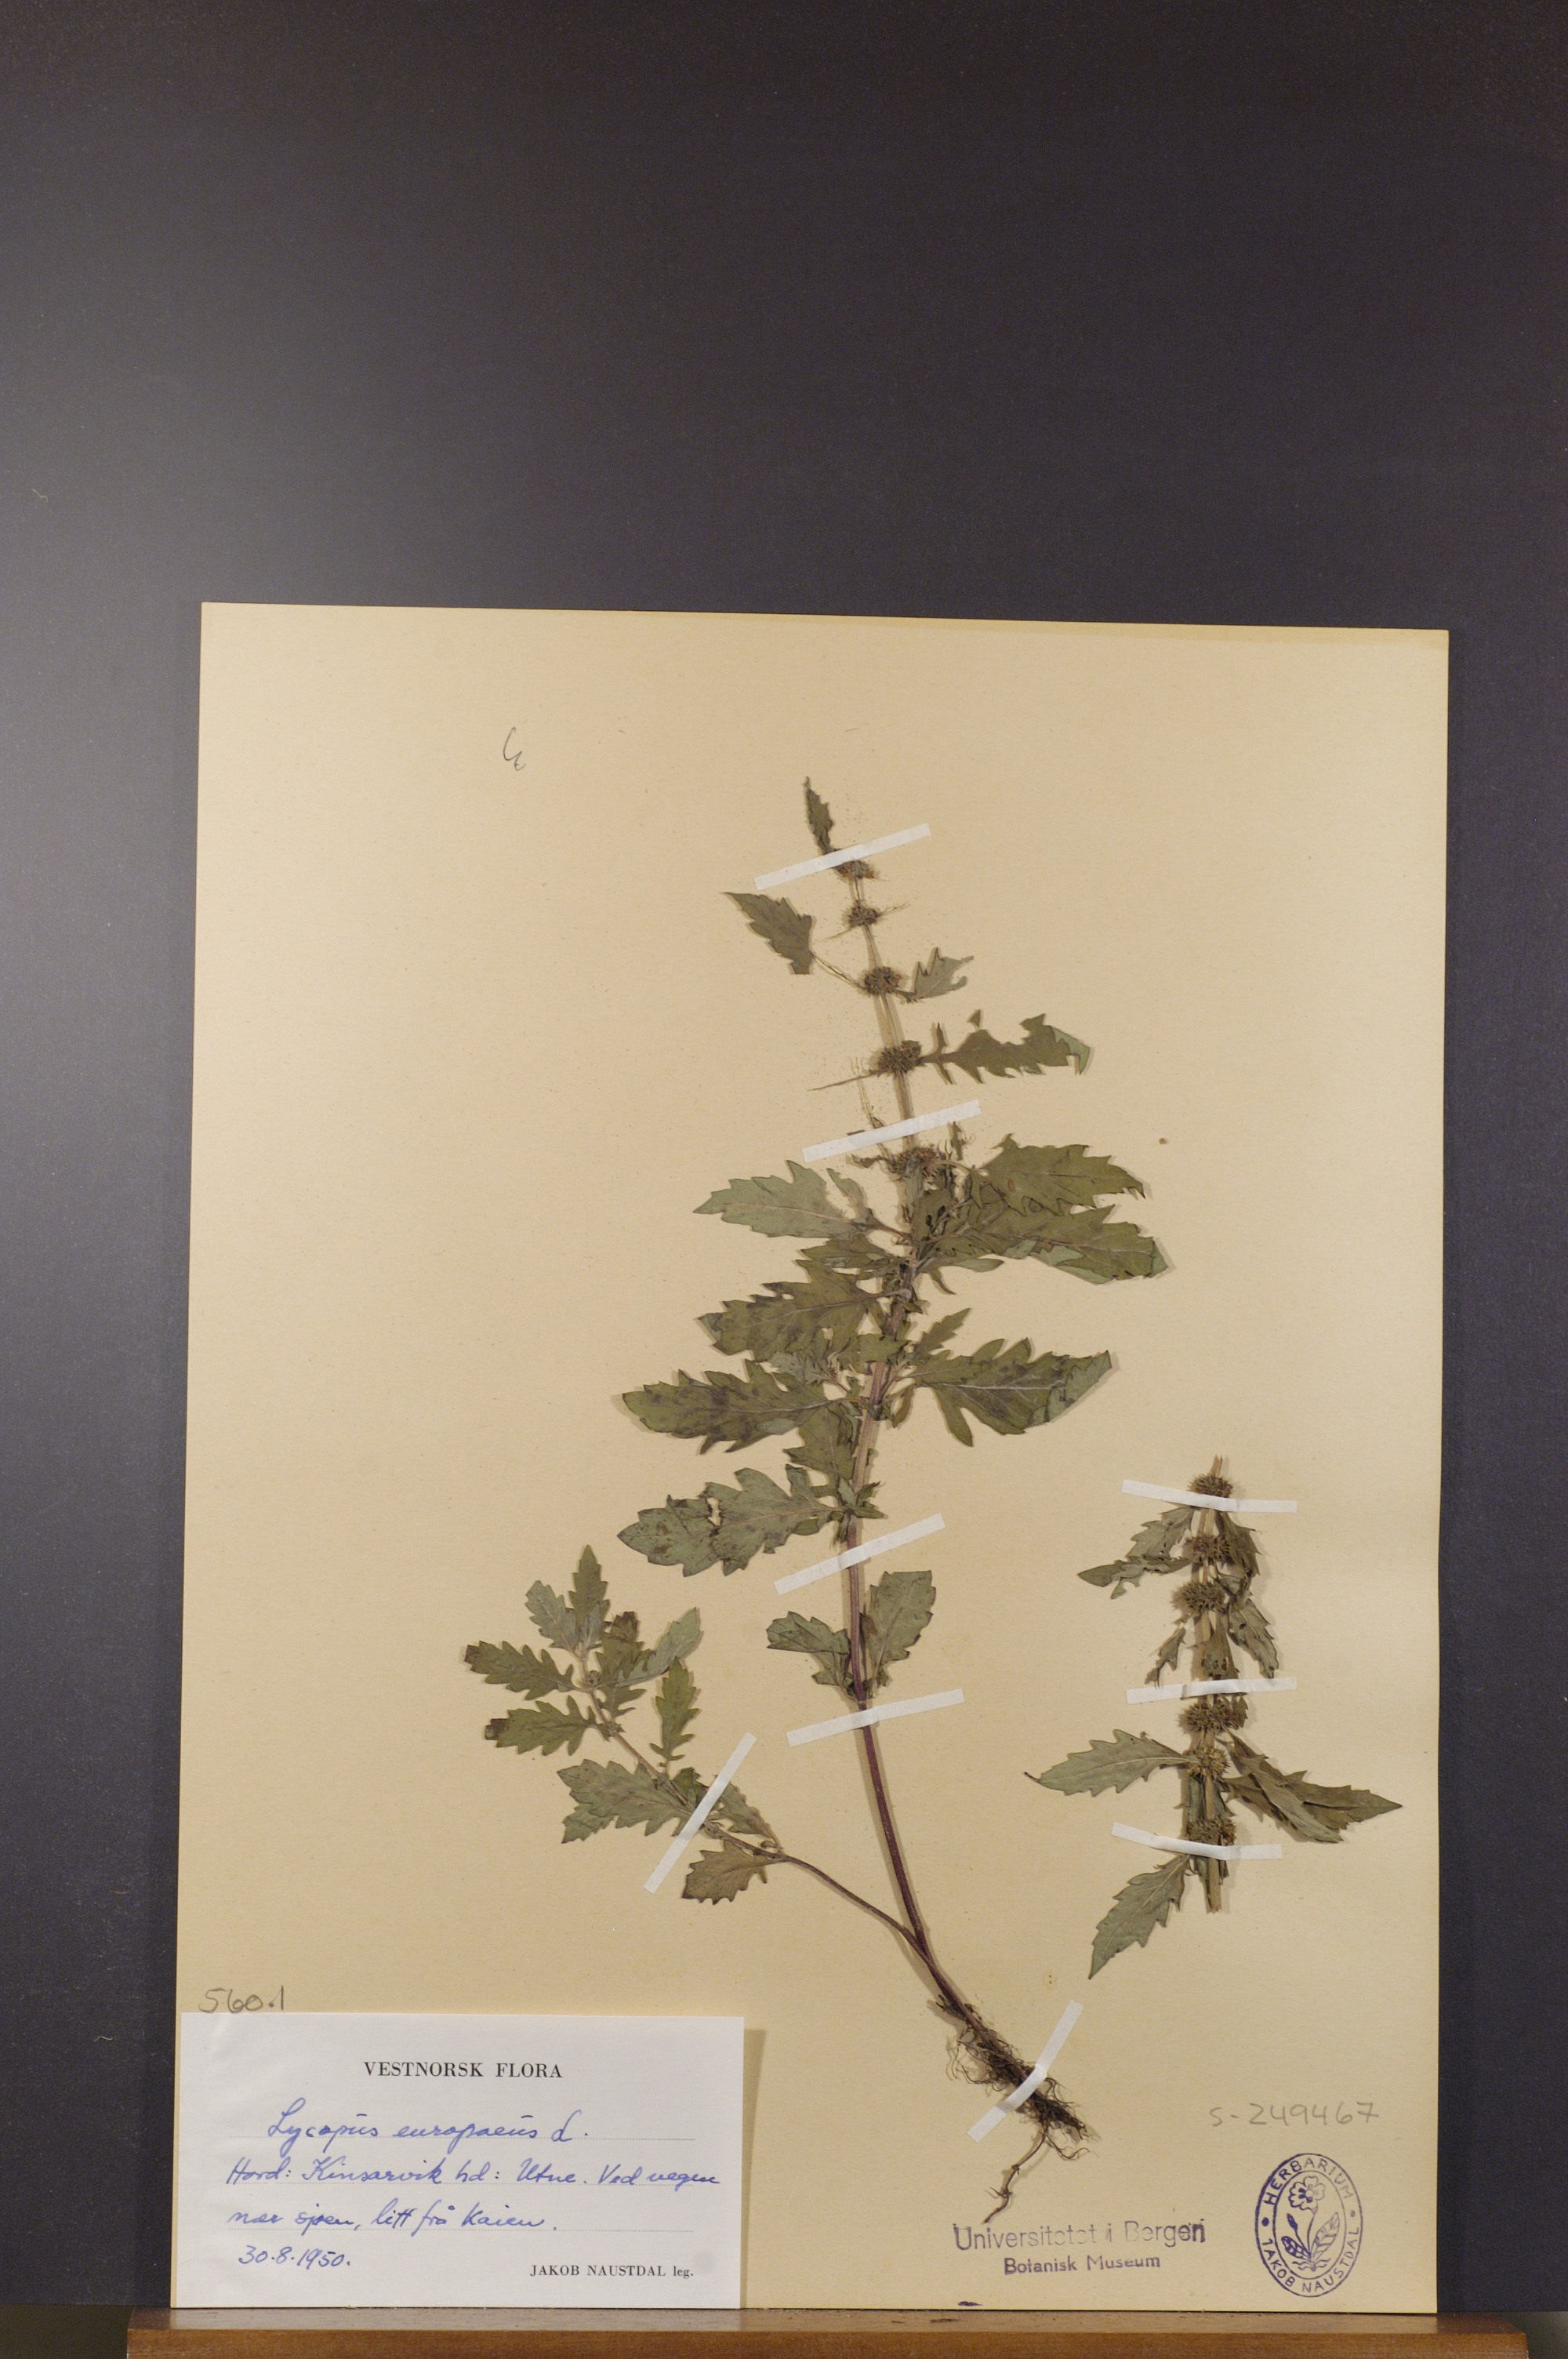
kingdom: Plantae
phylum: Tracheophyta
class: Magnoliopsida
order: Lamiales
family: Lamiaceae
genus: Lycopus
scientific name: Lycopus europaeus
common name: European bugleweed
